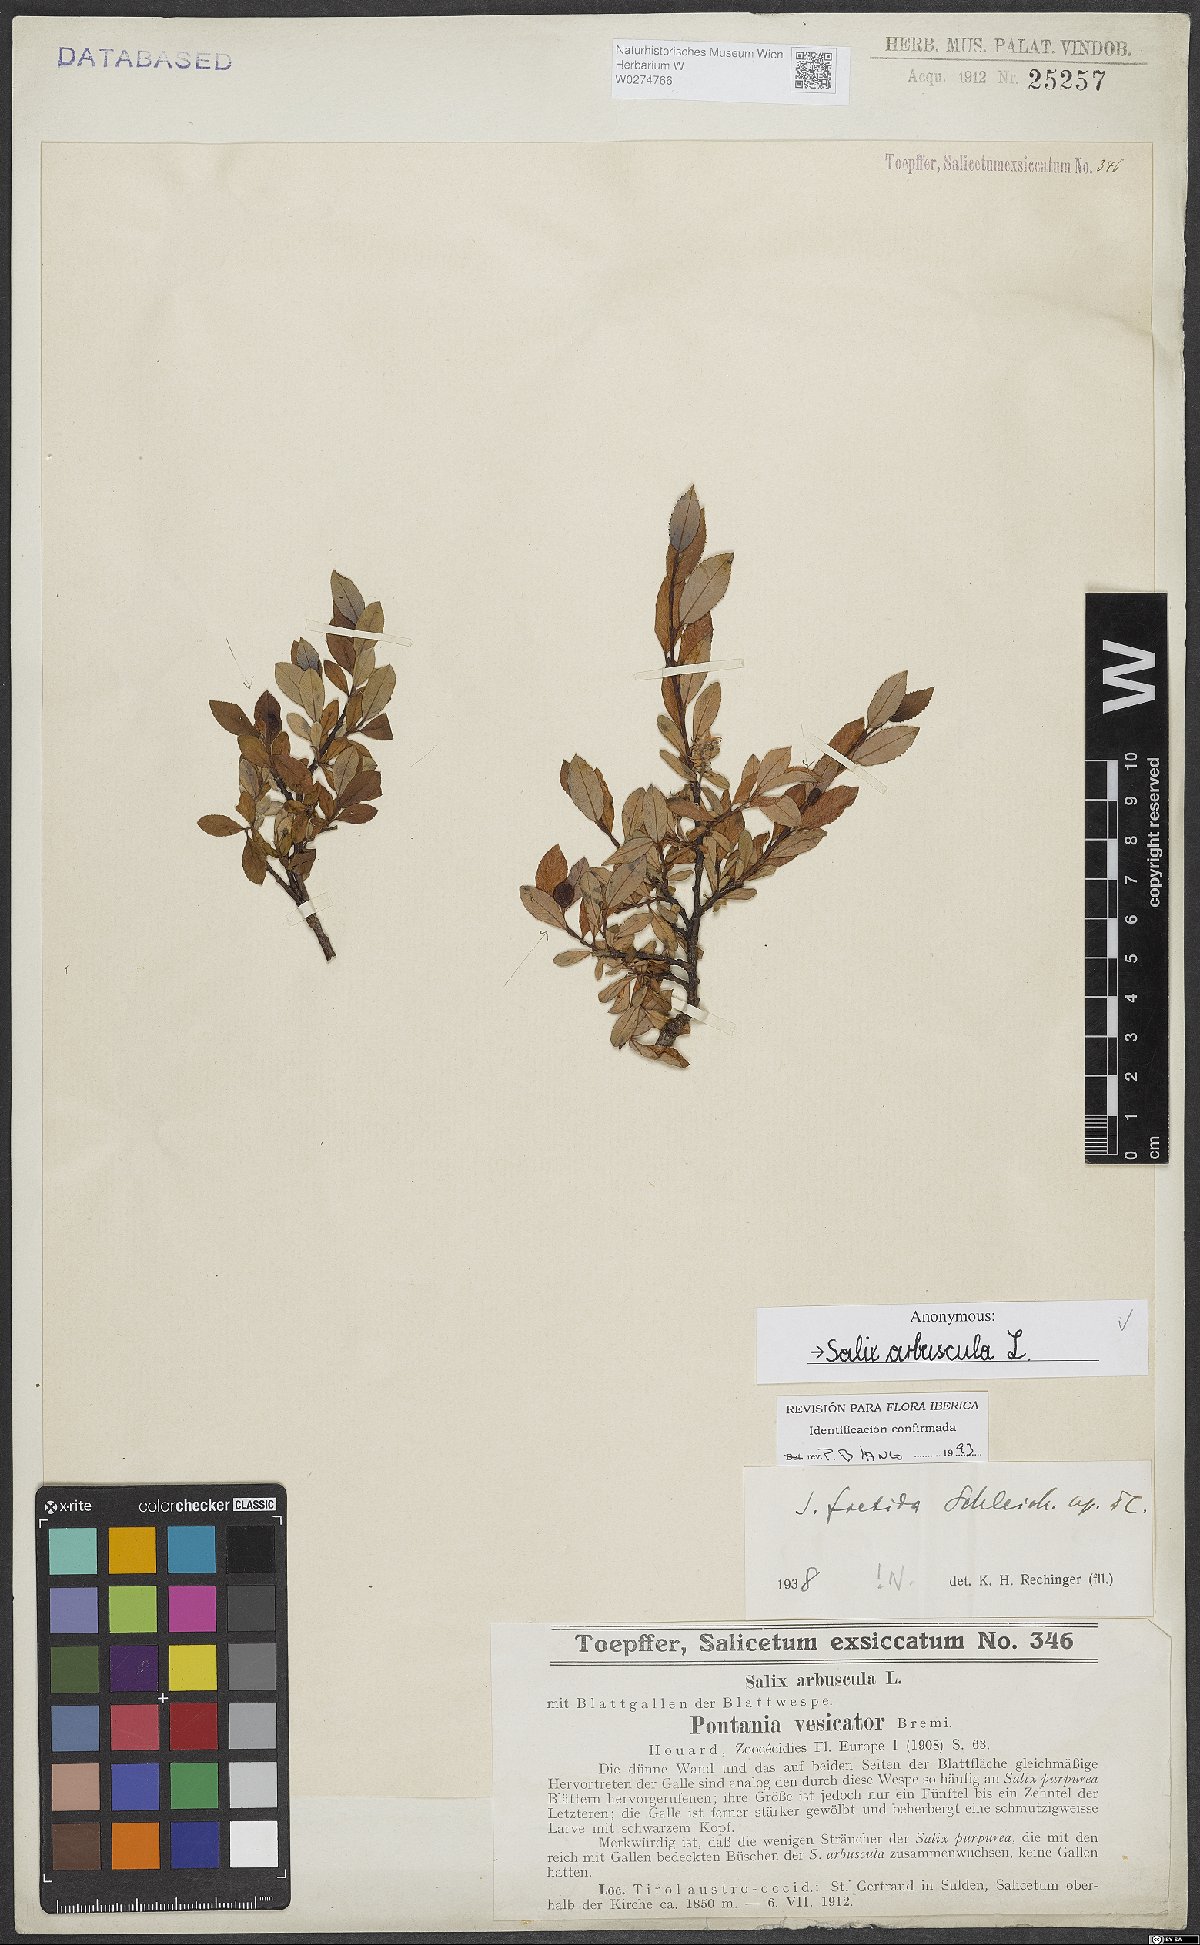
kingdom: Plantae
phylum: Tracheophyta
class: Magnoliopsida
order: Malpighiales
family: Salicaceae
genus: Salix
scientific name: Salix arbuscula
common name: Mountain willow
